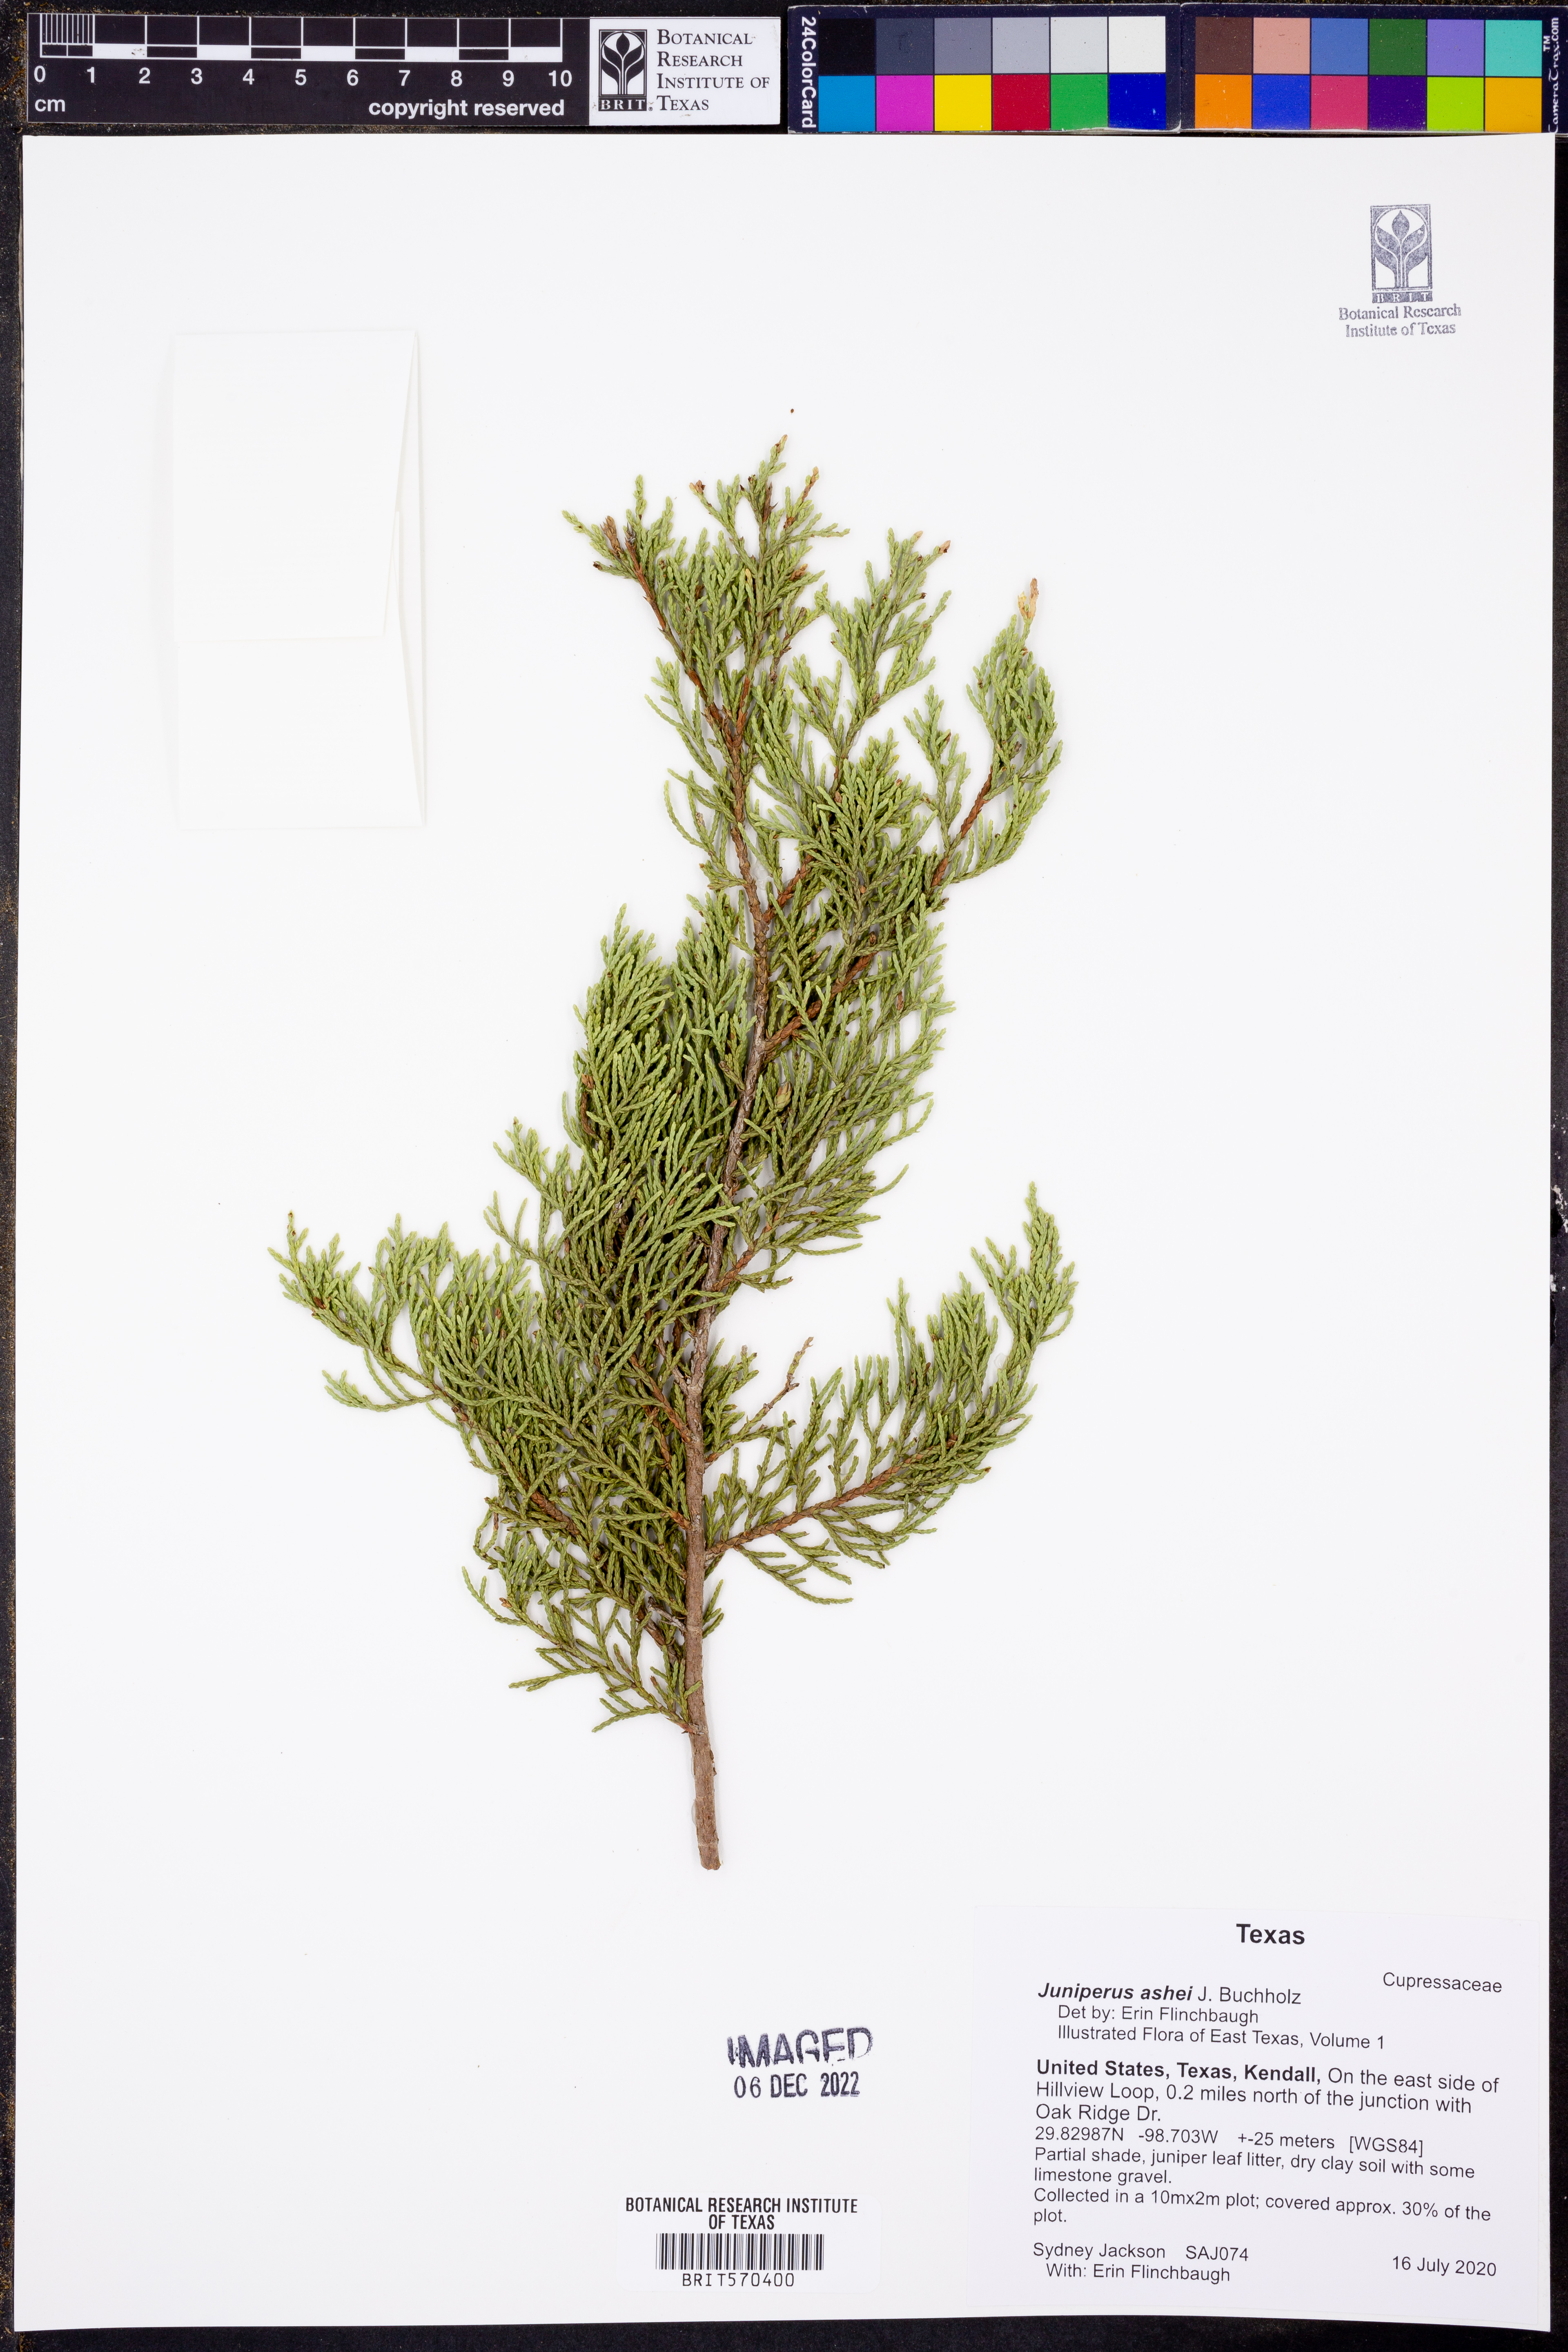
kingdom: Plantae
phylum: Tracheophyta
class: Pinopsida
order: Pinales
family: Cupressaceae
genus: Juniperus
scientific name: Juniperus ashei
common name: Mexican juniper
